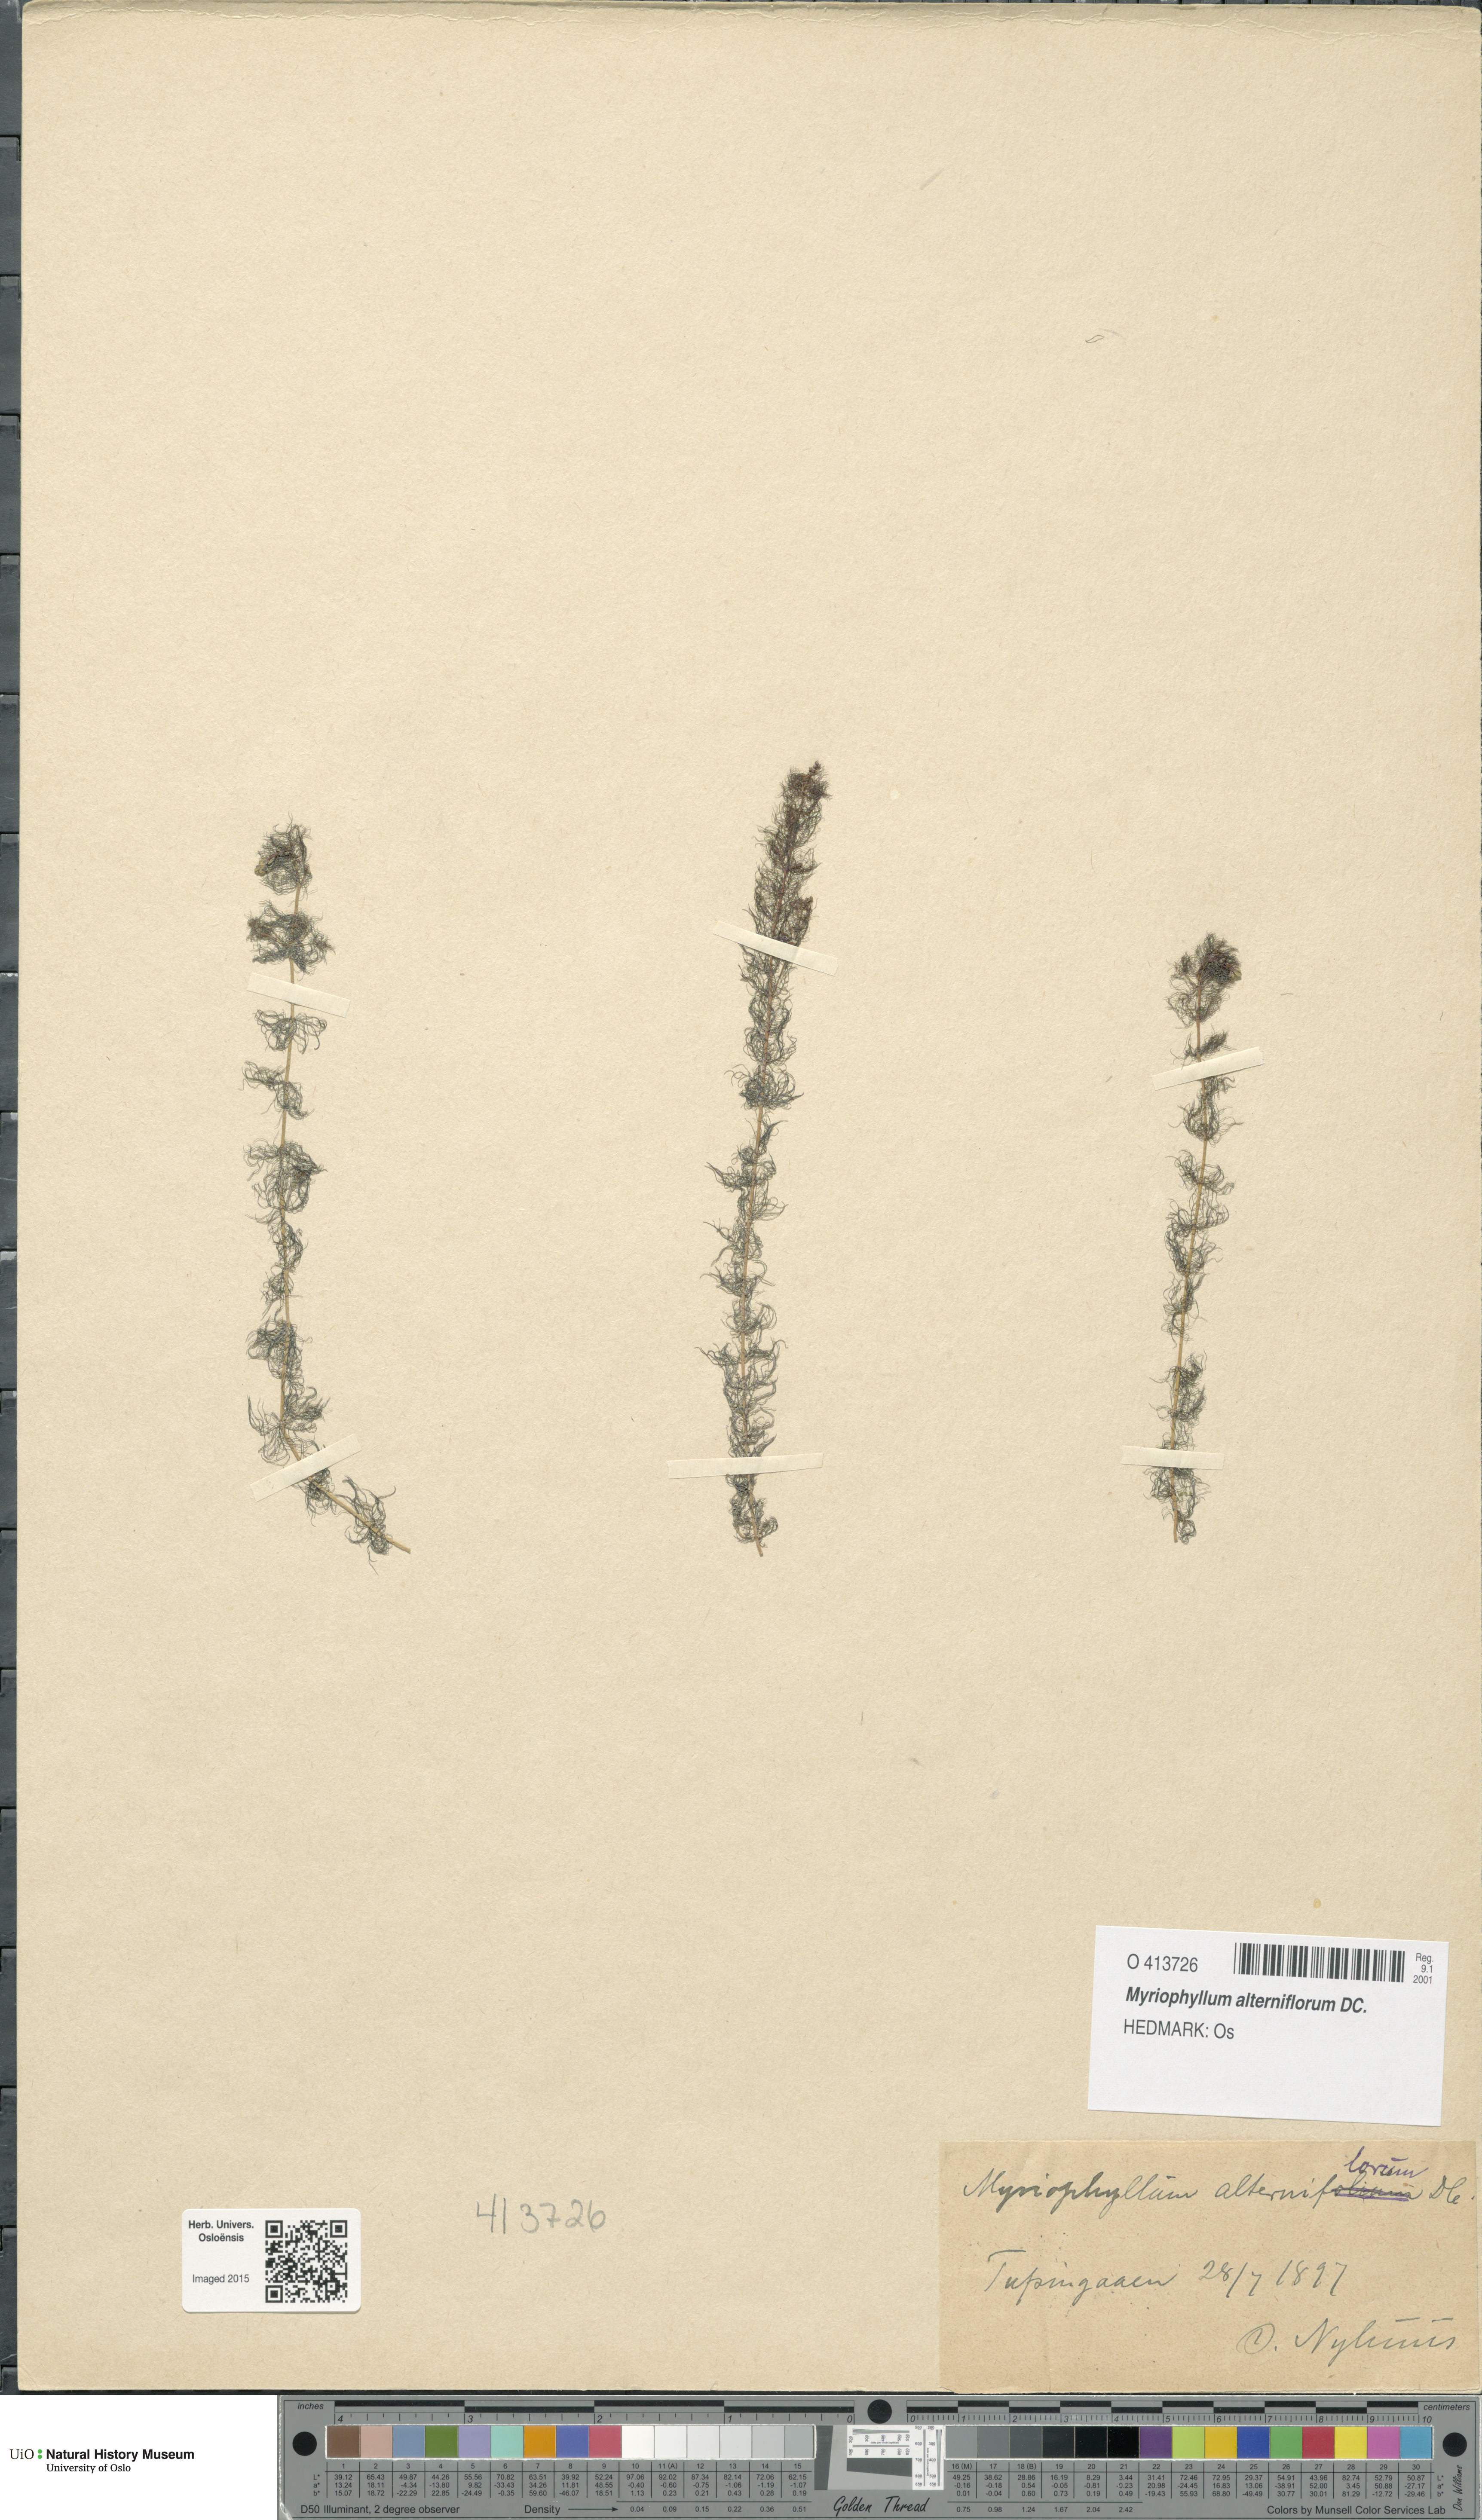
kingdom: Plantae
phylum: Tracheophyta
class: Magnoliopsida
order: Saxifragales
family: Haloragaceae
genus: Myriophyllum
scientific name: Myriophyllum alterniflorum
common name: Alternate water-milfoil
